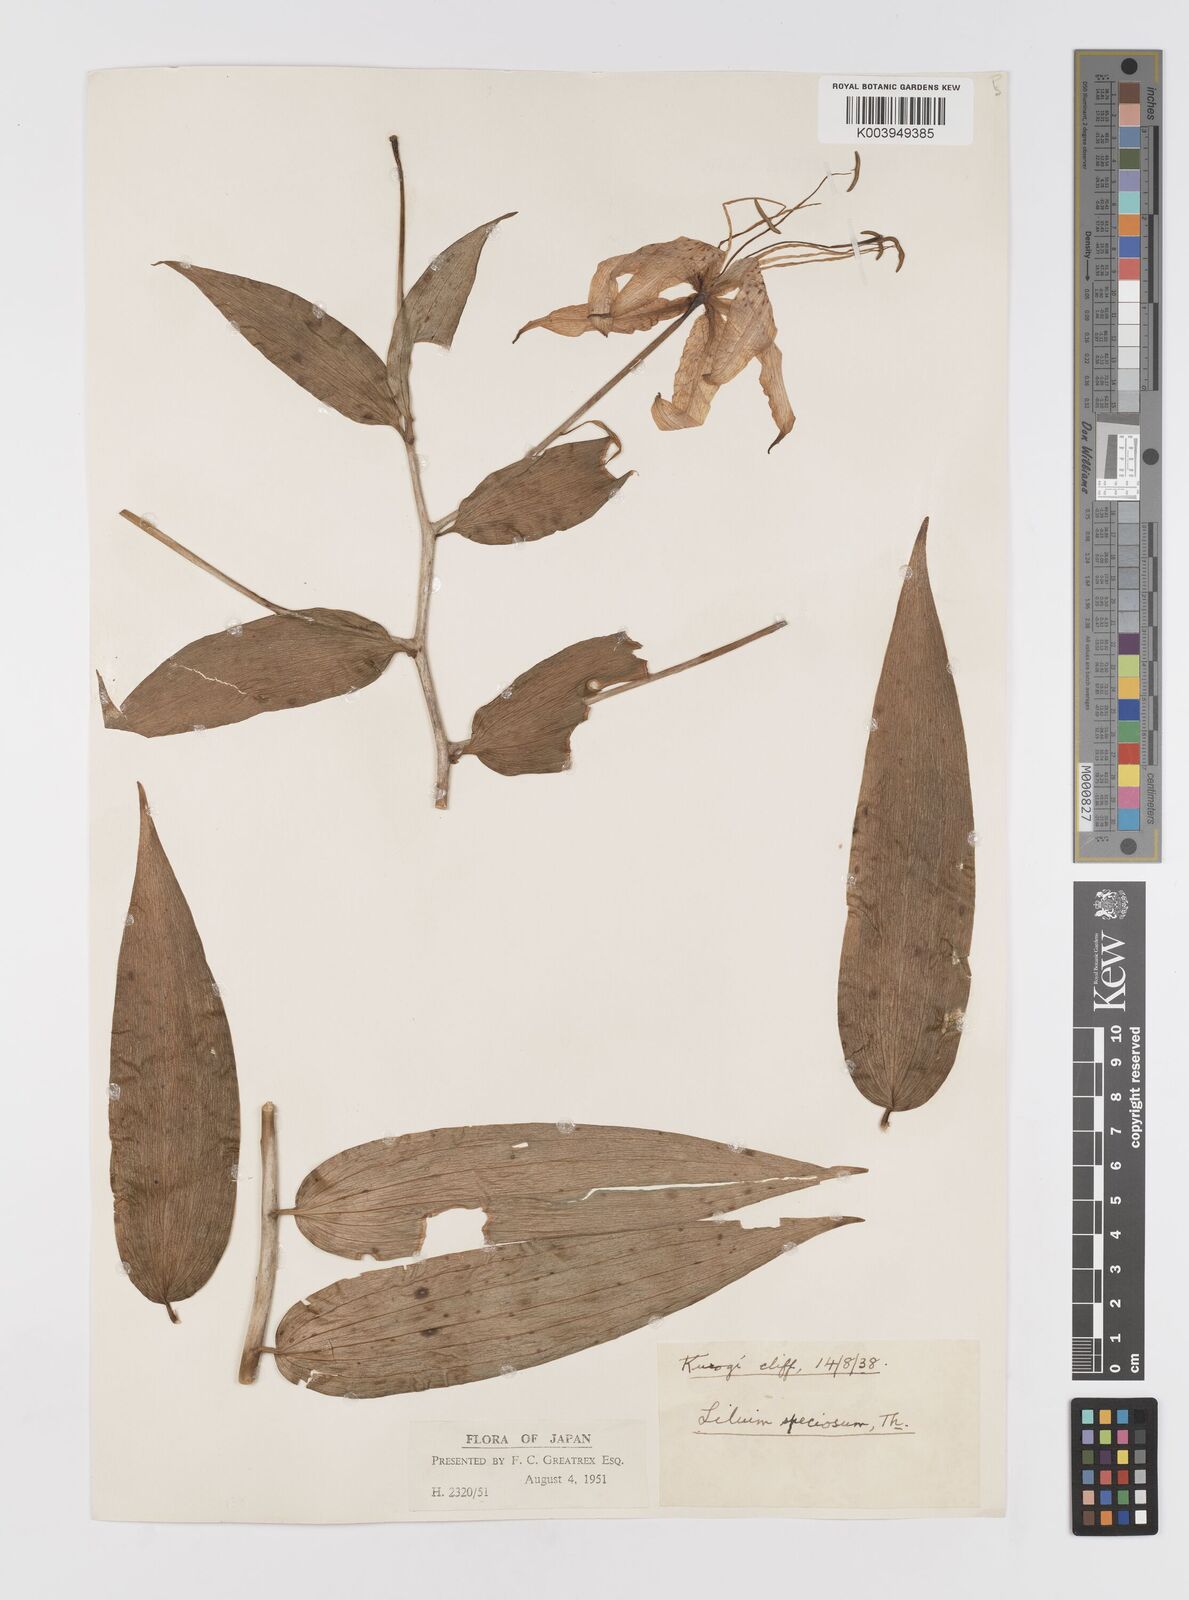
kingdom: Plantae
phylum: Tracheophyta
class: Liliopsida
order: Liliales
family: Liliaceae
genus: Lilium
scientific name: Lilium speciosum
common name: Japanese lily
